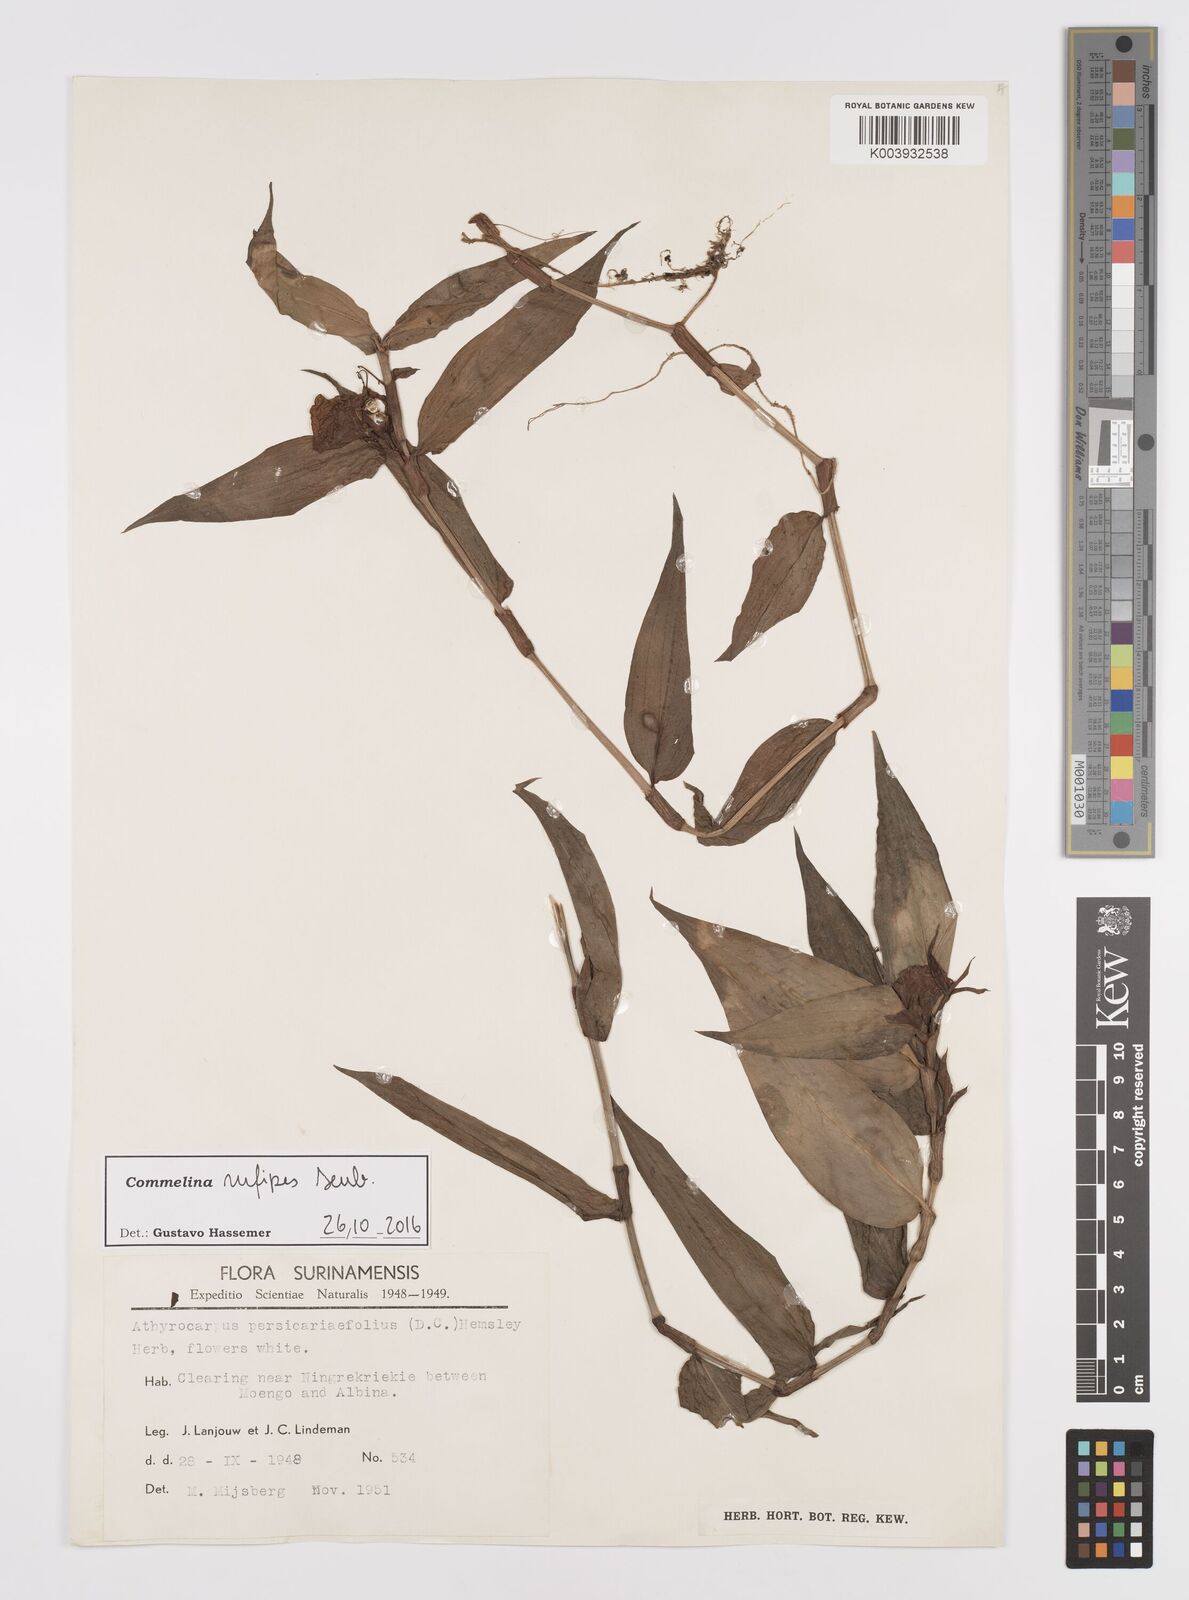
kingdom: Plantae
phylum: Tracheophyta
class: Liliopsida
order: Commelinales
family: Commelinaceae
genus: Commelina
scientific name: Commelina rufipes
